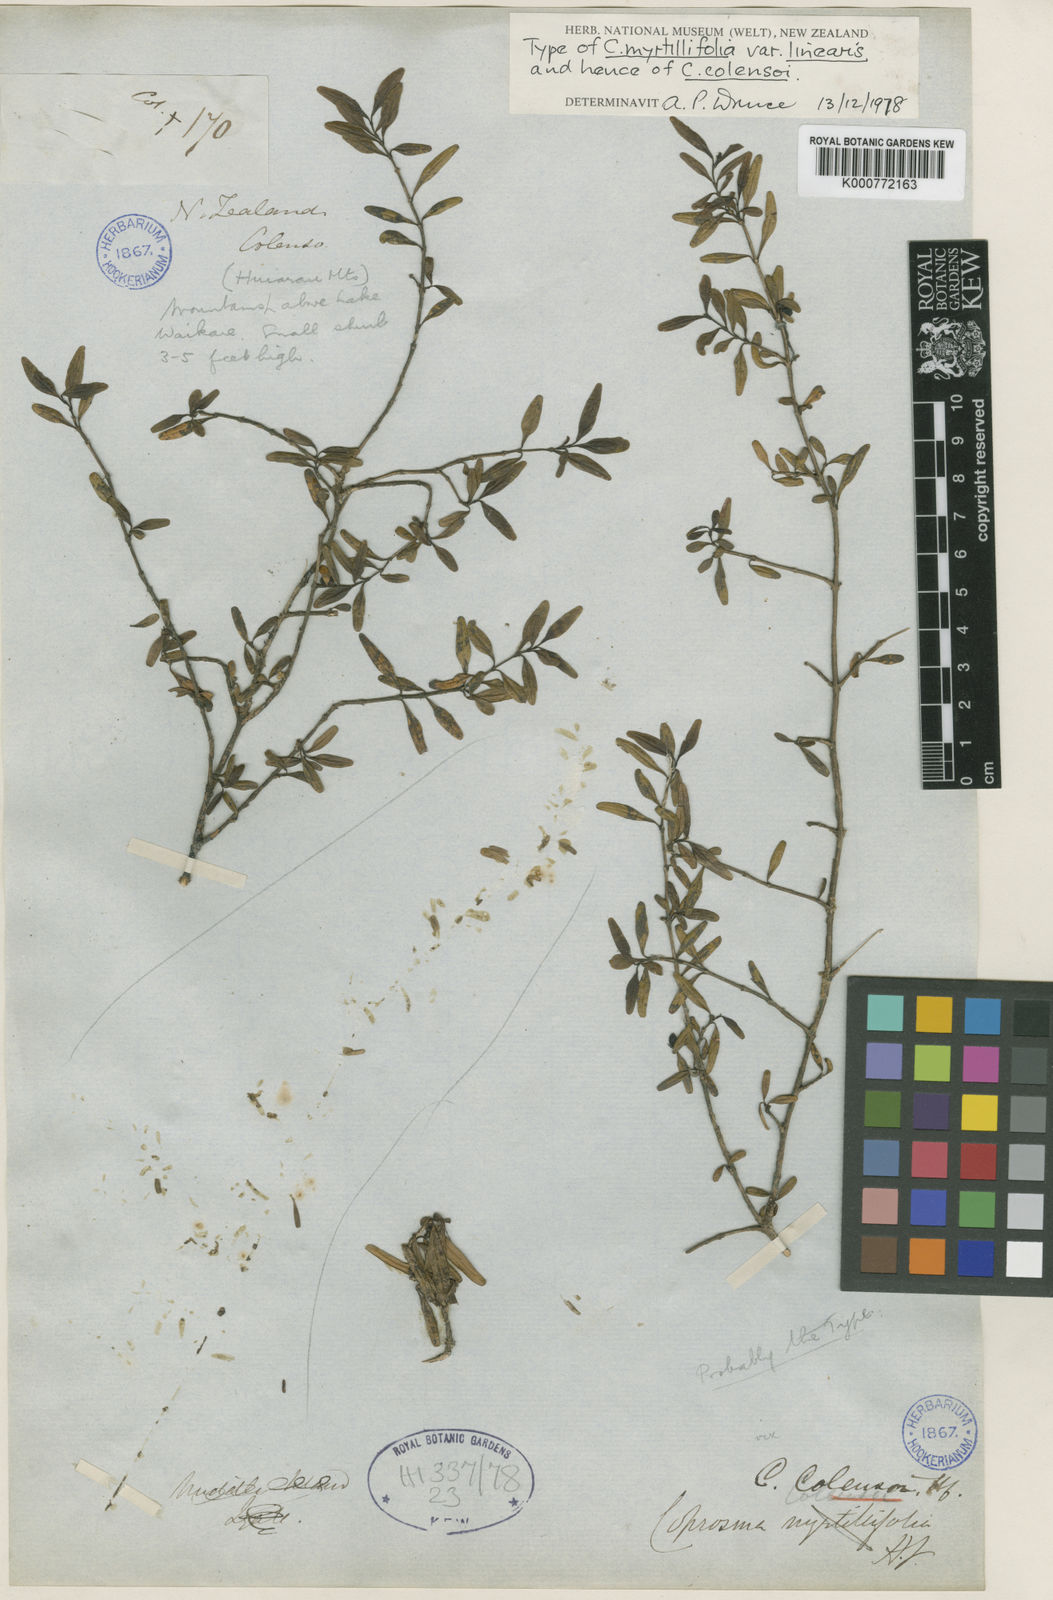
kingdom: Plantae
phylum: Tracheophyta
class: Magnoliopsida
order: Gentianales
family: Rubiaceae
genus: Coprosma
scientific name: Coprosma colensoi
